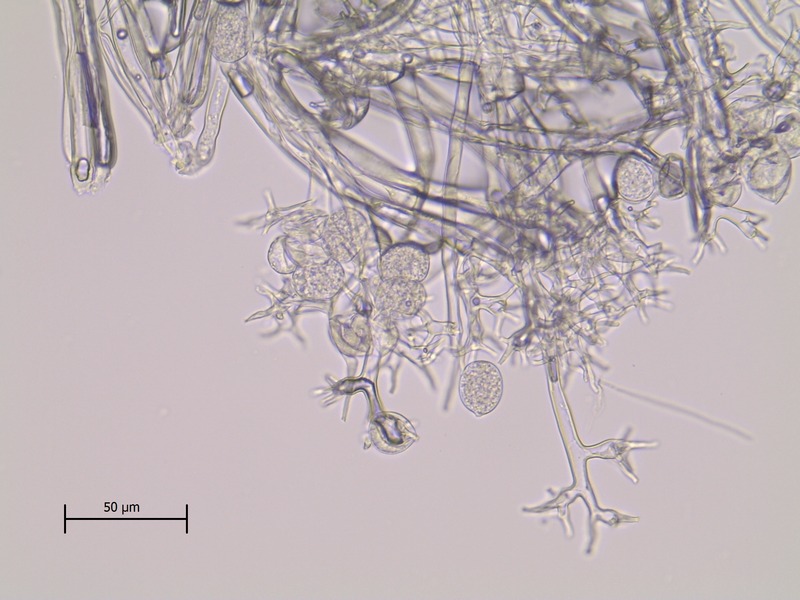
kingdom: Chromista
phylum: Oomycota
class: Peronosporea
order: Peronosporales
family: Peronosporaceae
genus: Peronospora
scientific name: Peronospora crustosa
